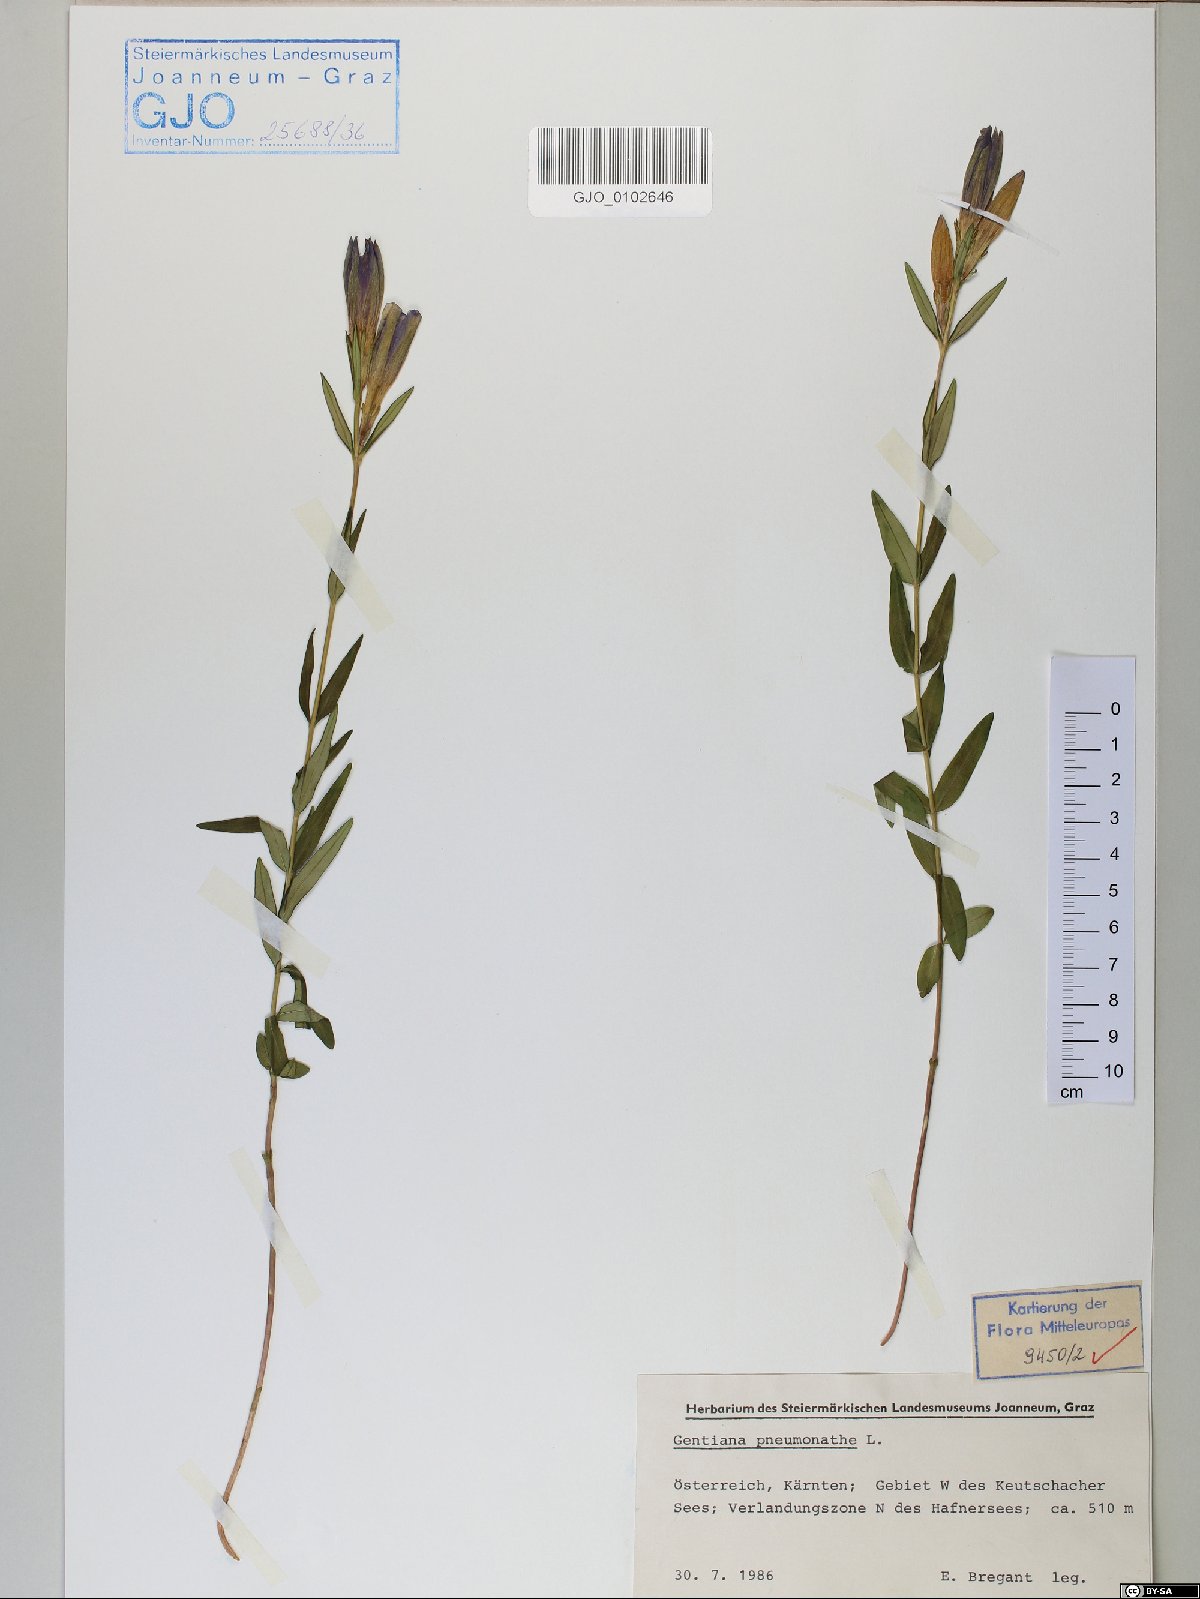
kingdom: Plantae
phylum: Tracheophyta
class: Magnoliopsida
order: Gentianales
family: Gentianaceae
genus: Gentiana
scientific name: Gentiana pneumonanthe
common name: Marsh gentian
